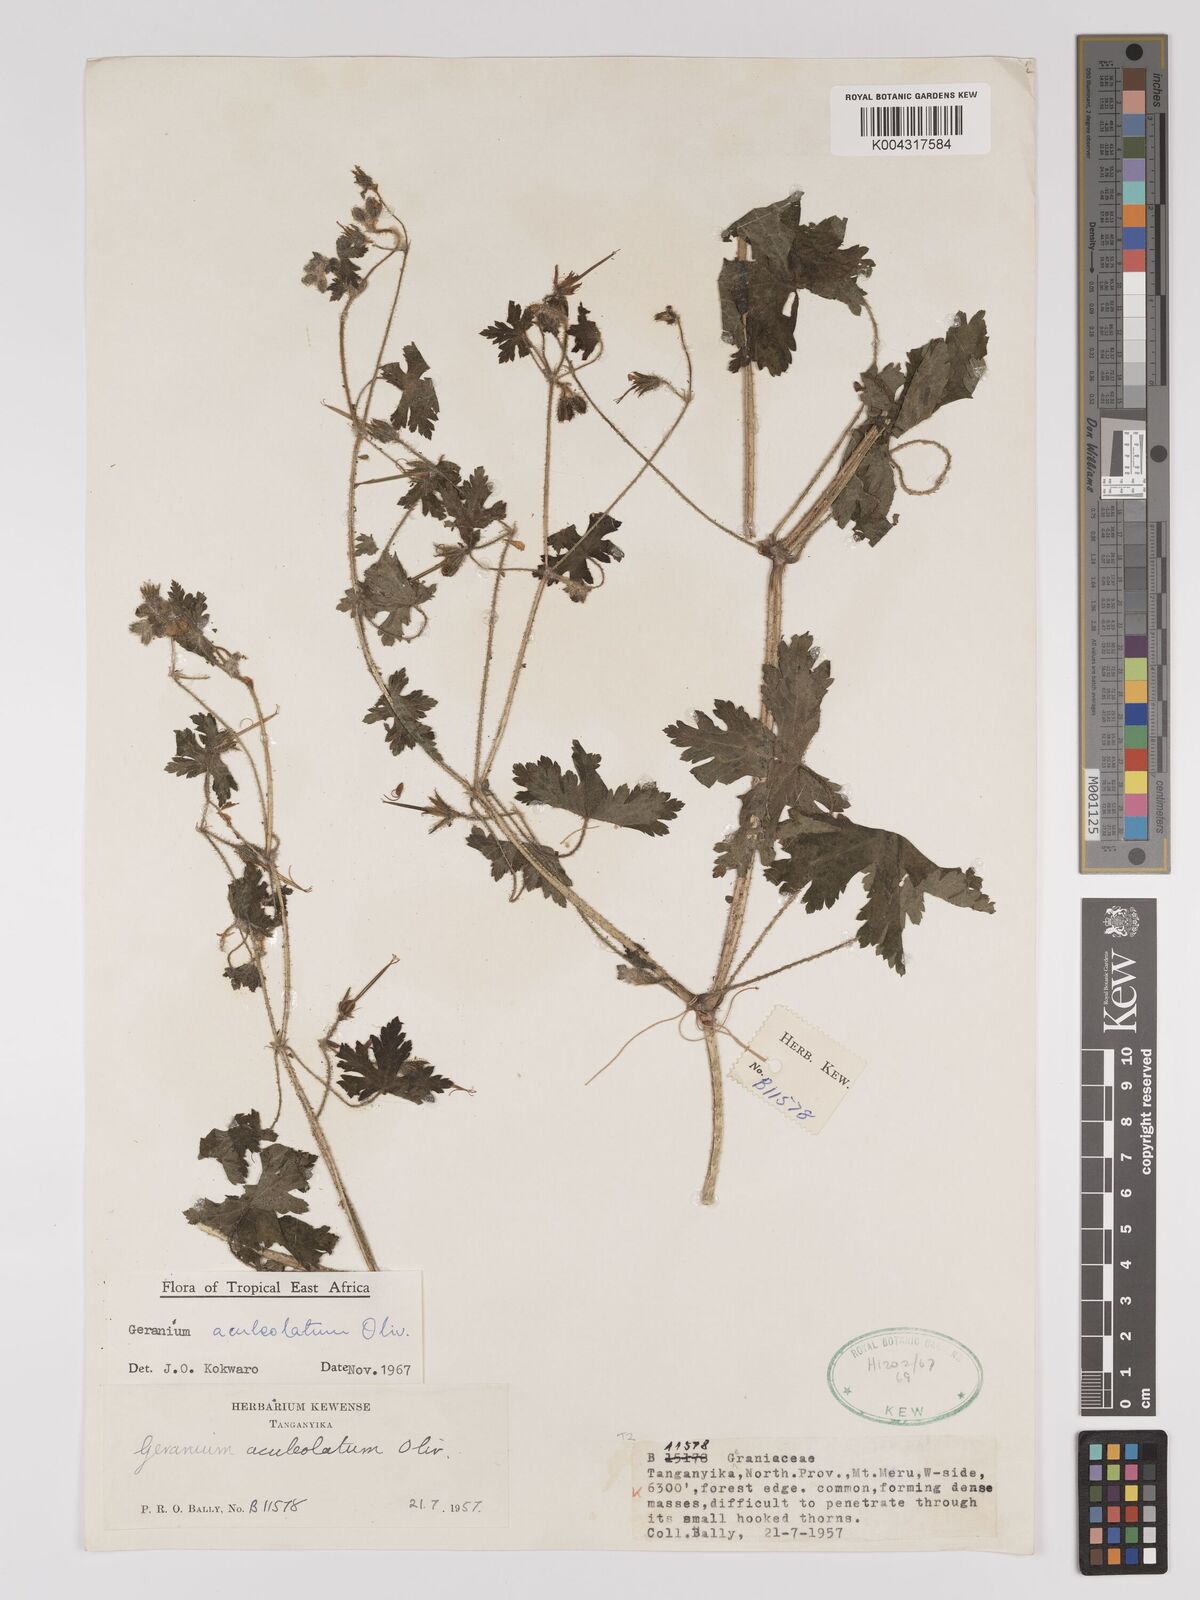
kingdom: Plantae
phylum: Tracheophyta
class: Magnoliopsida
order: Geraniales
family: Geraniaceae
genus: Geranium
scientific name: Geranium aculeolatum
